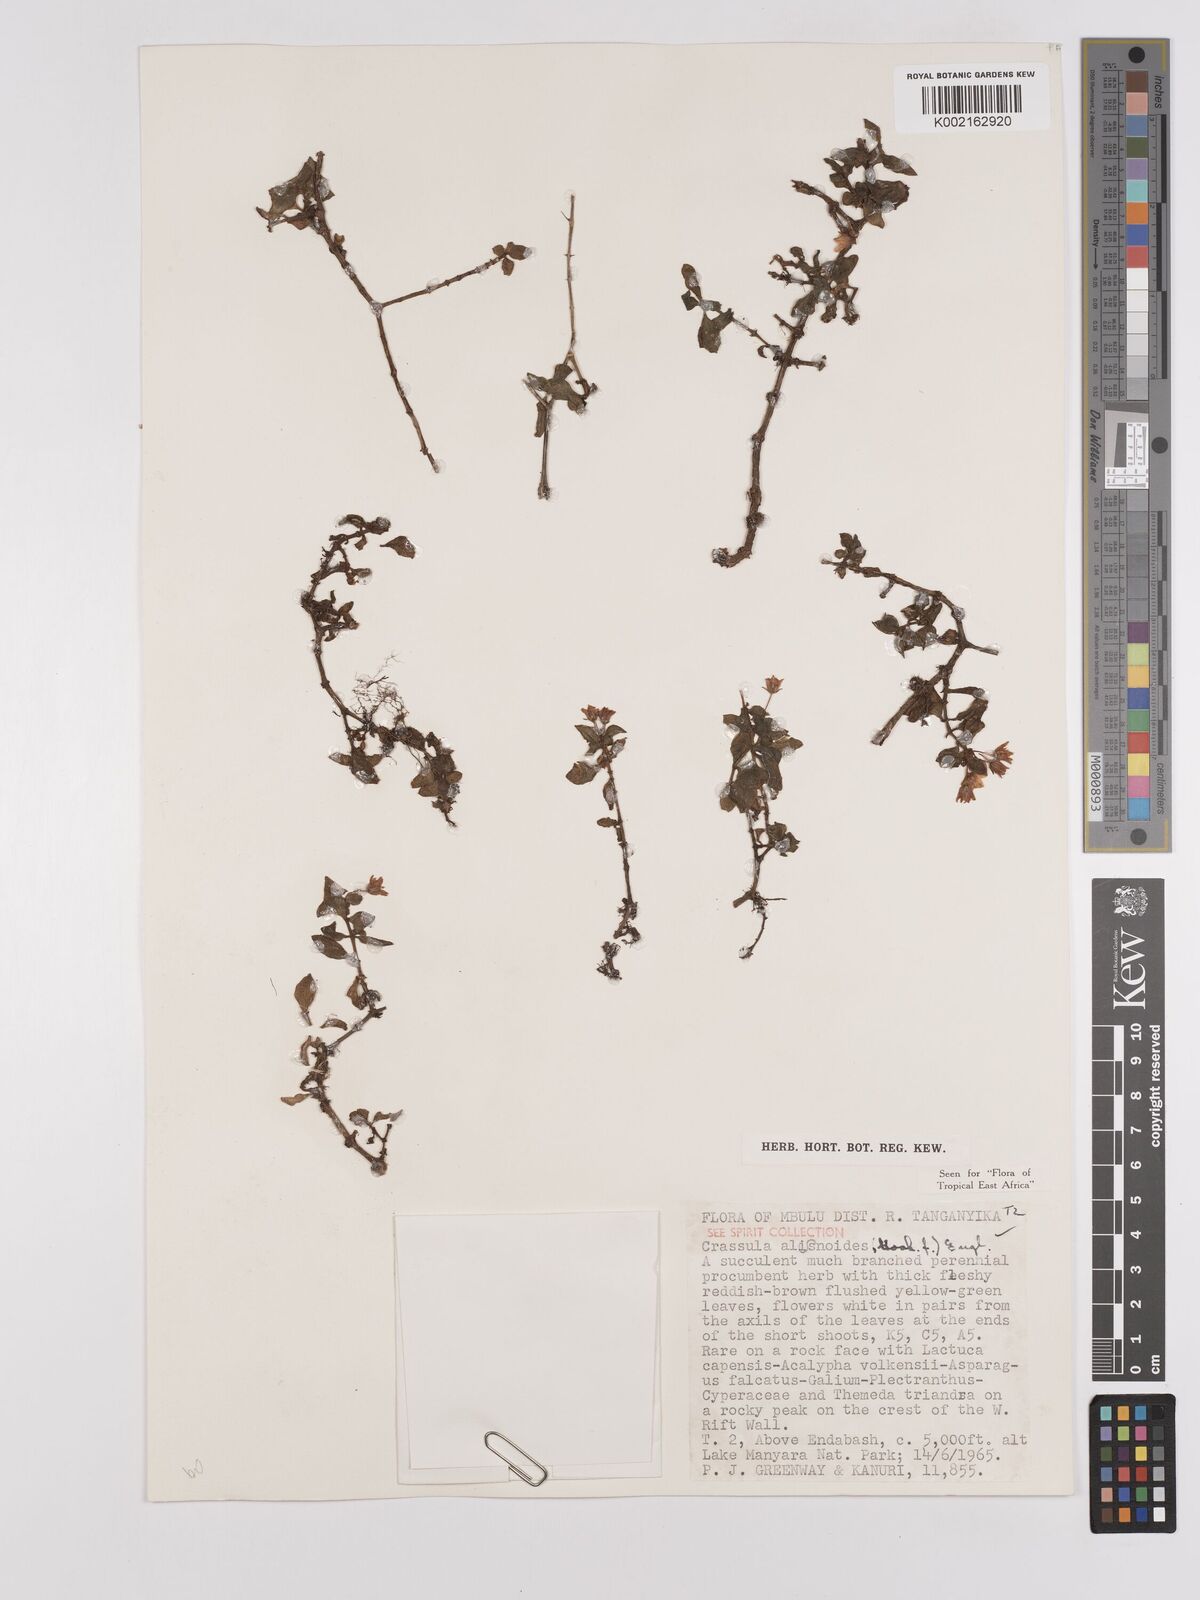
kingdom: Plantae
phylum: Tracheophyta
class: Magnoliopsida
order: Saxifragales
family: Crassulaceae
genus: Crassula
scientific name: Crassula alsinoides
